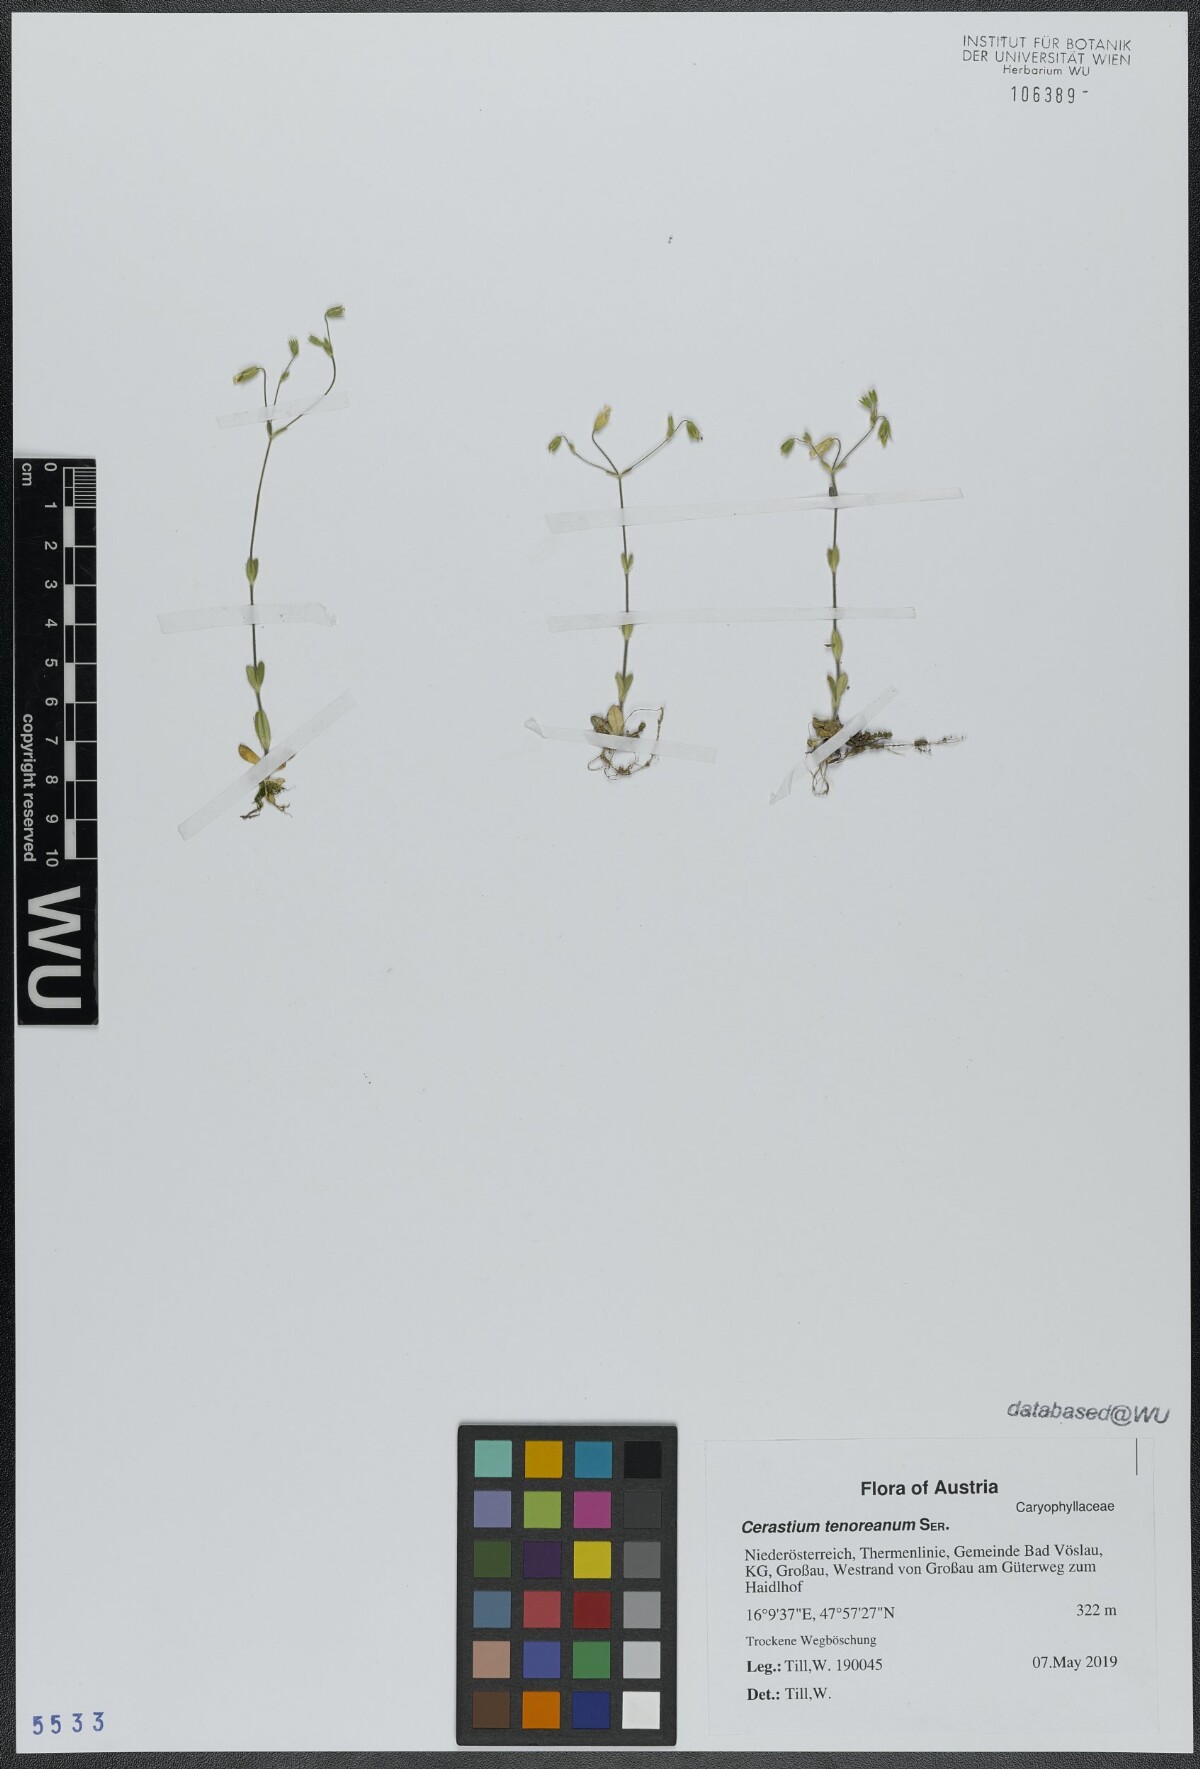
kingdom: Plantae
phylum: Tracheophyta
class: Magnoliopsida
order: Caryophyllales
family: Caryophyllaceae
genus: Cerastium
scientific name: Cerastium tenoreanum
